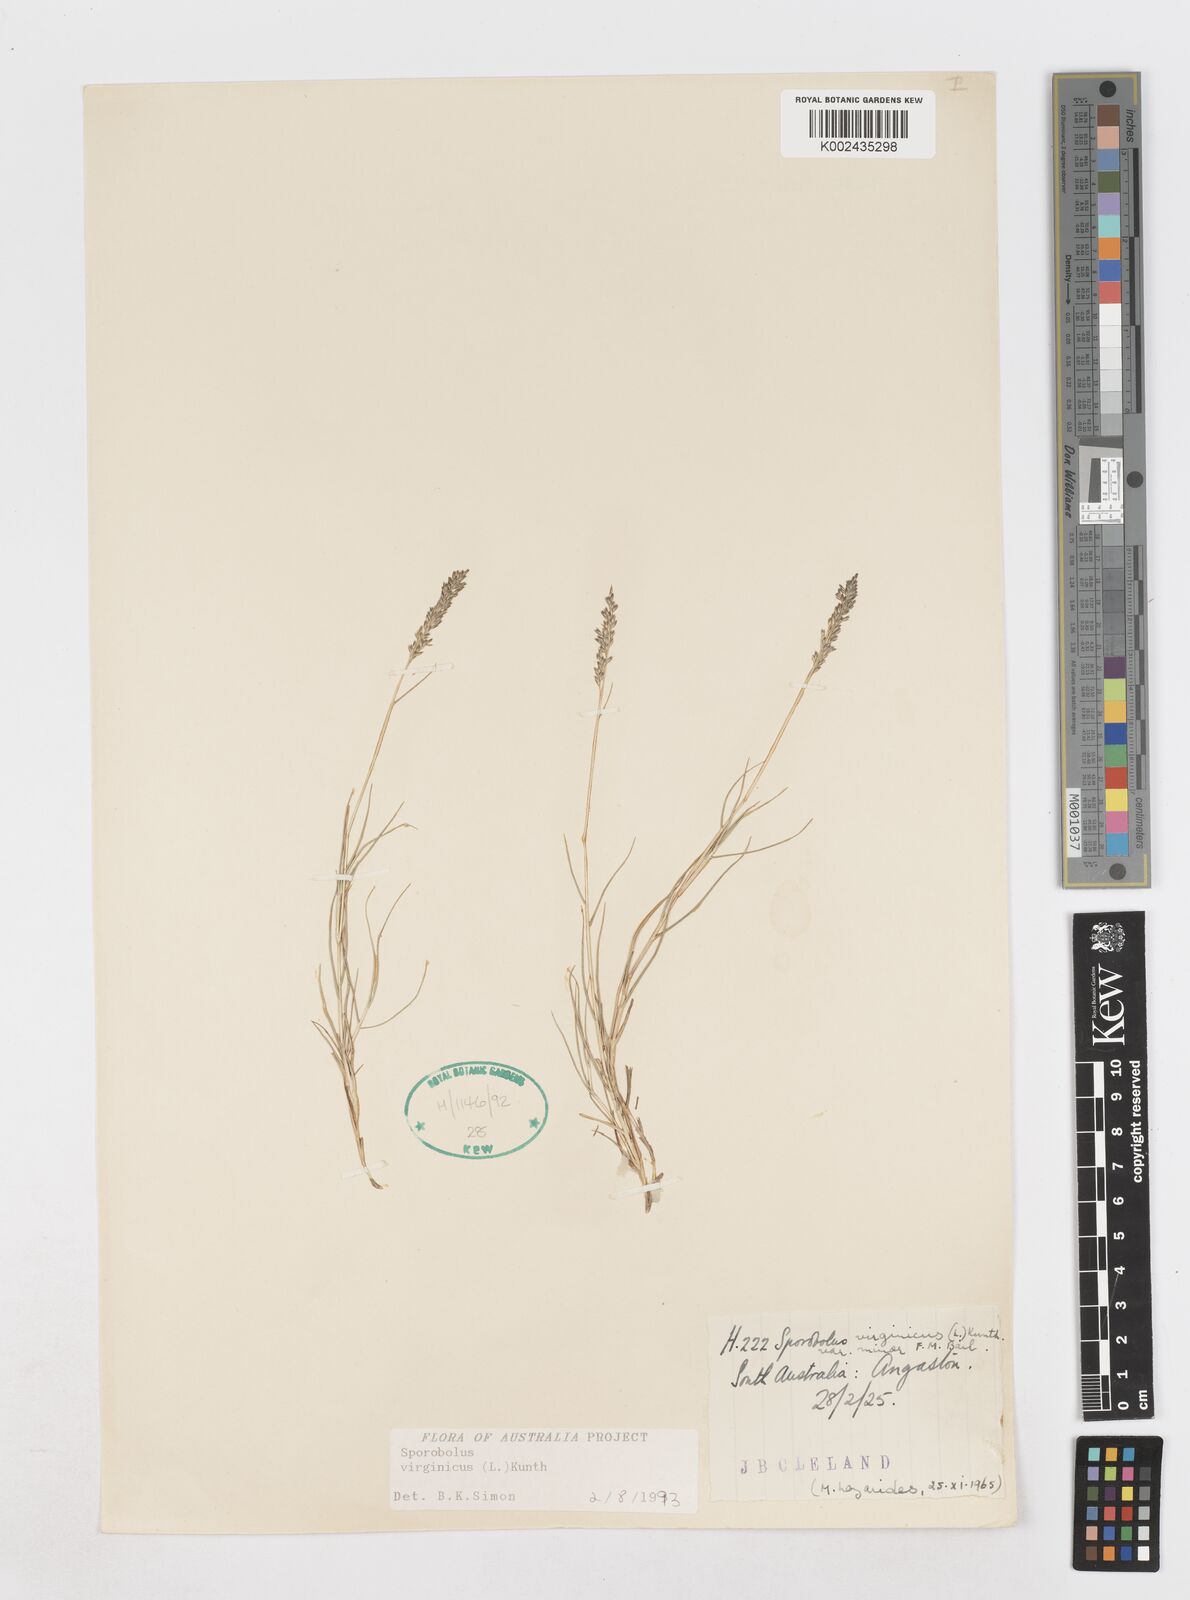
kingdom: Plantae
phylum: Tracheophyta
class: Liliopsida
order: Poales
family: Poaceae
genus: Sporobolus
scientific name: Sporobolus virginicus
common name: Beach dropseed
